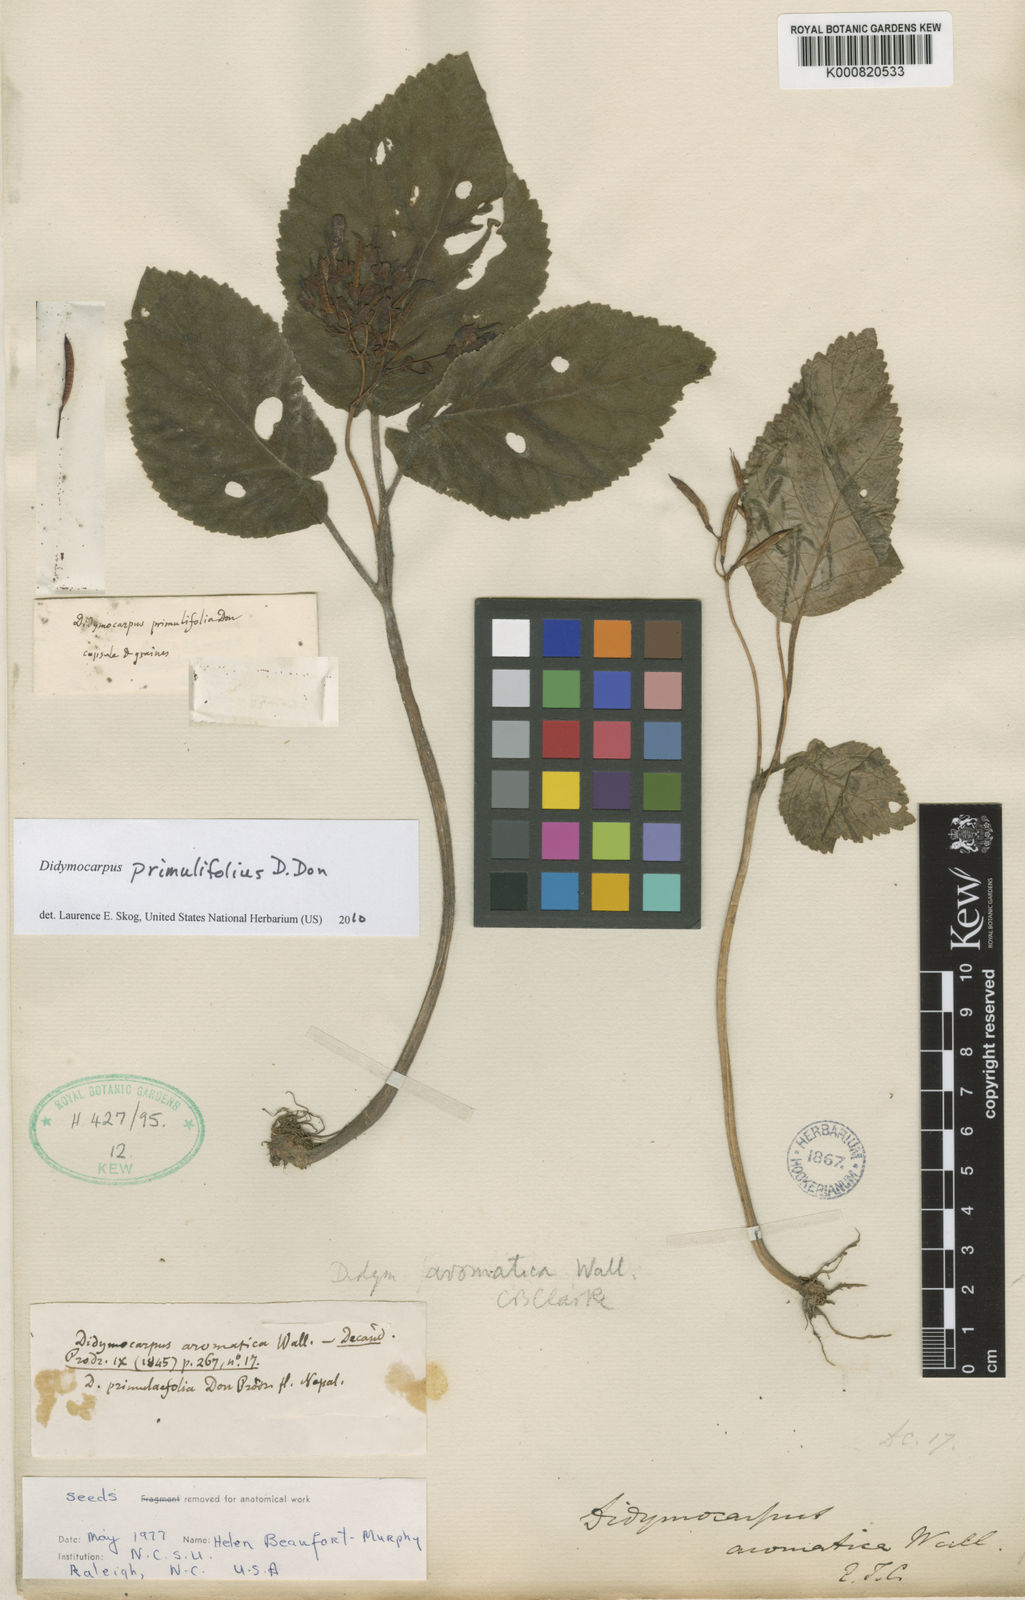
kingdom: Plantae
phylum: Tracheophyta
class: Magnoliopsida
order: Lamiales
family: Gesneriaceae
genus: Didymocarpus
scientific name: Didymocarpus primulifolius
